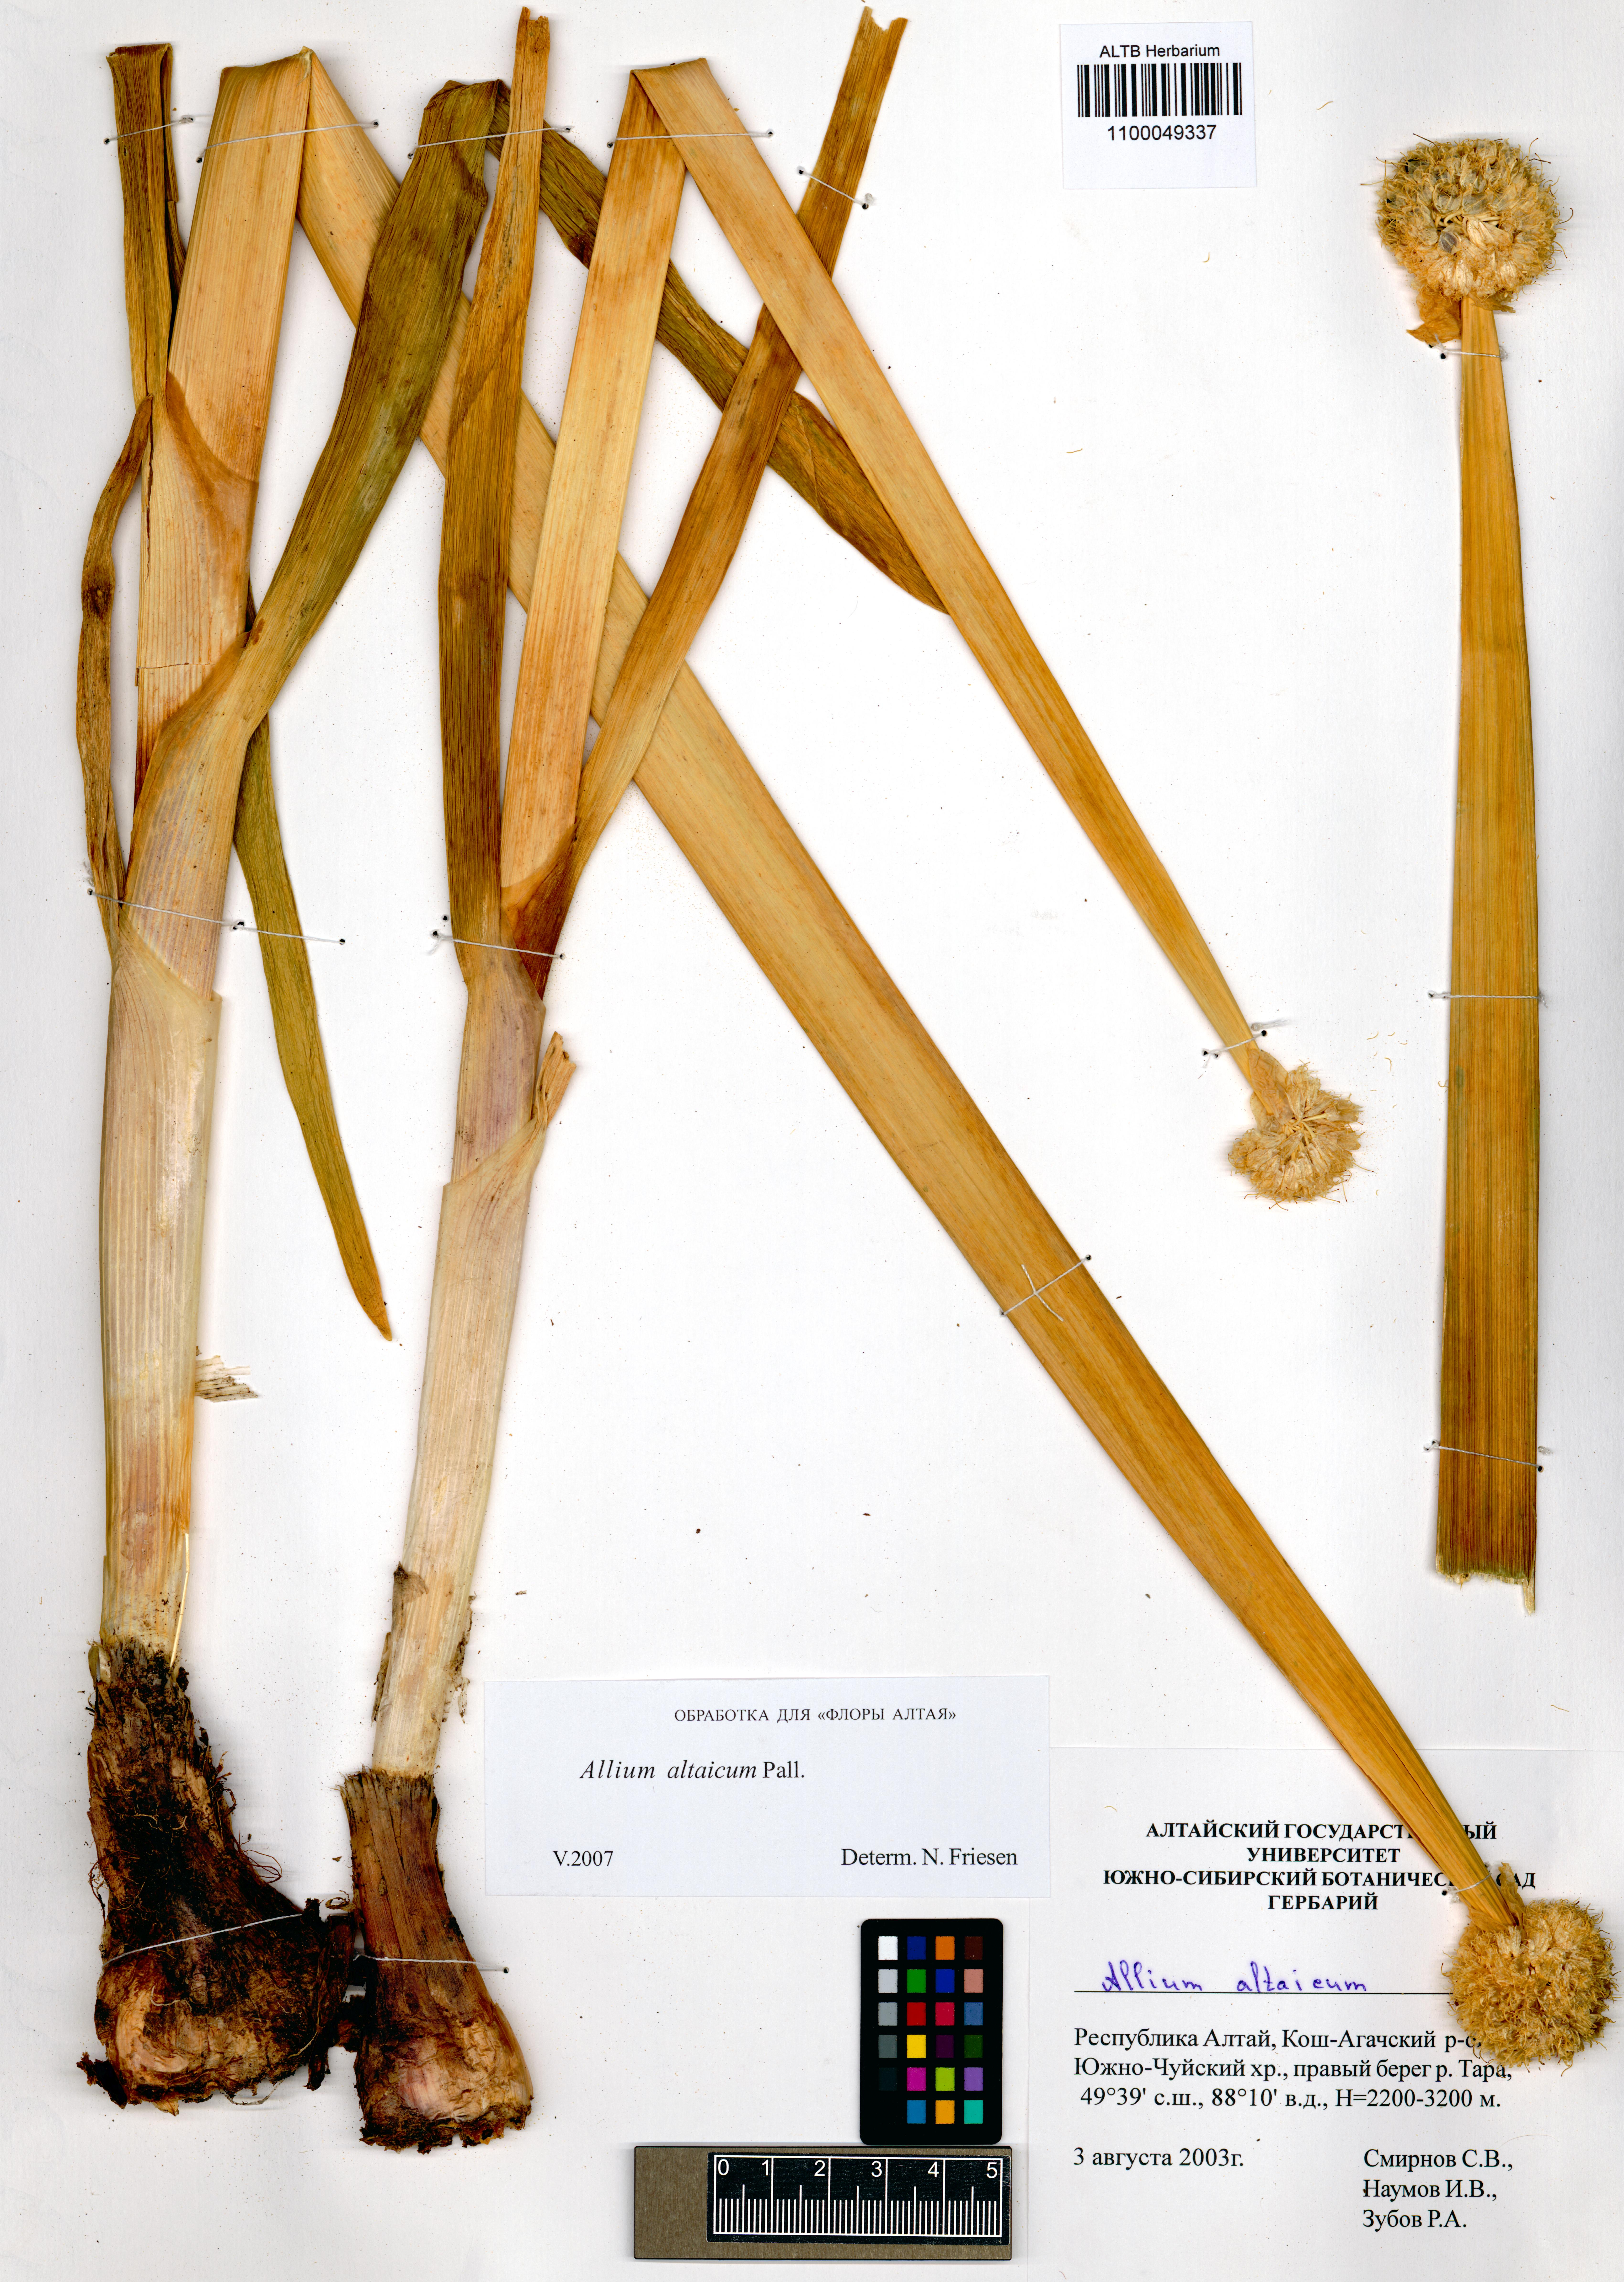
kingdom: Plantae
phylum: Tracheophyta
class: Liliopsida
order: Asparagales
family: Amaryllidaceae
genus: Allium
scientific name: Allium altaicum
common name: Altai onion
